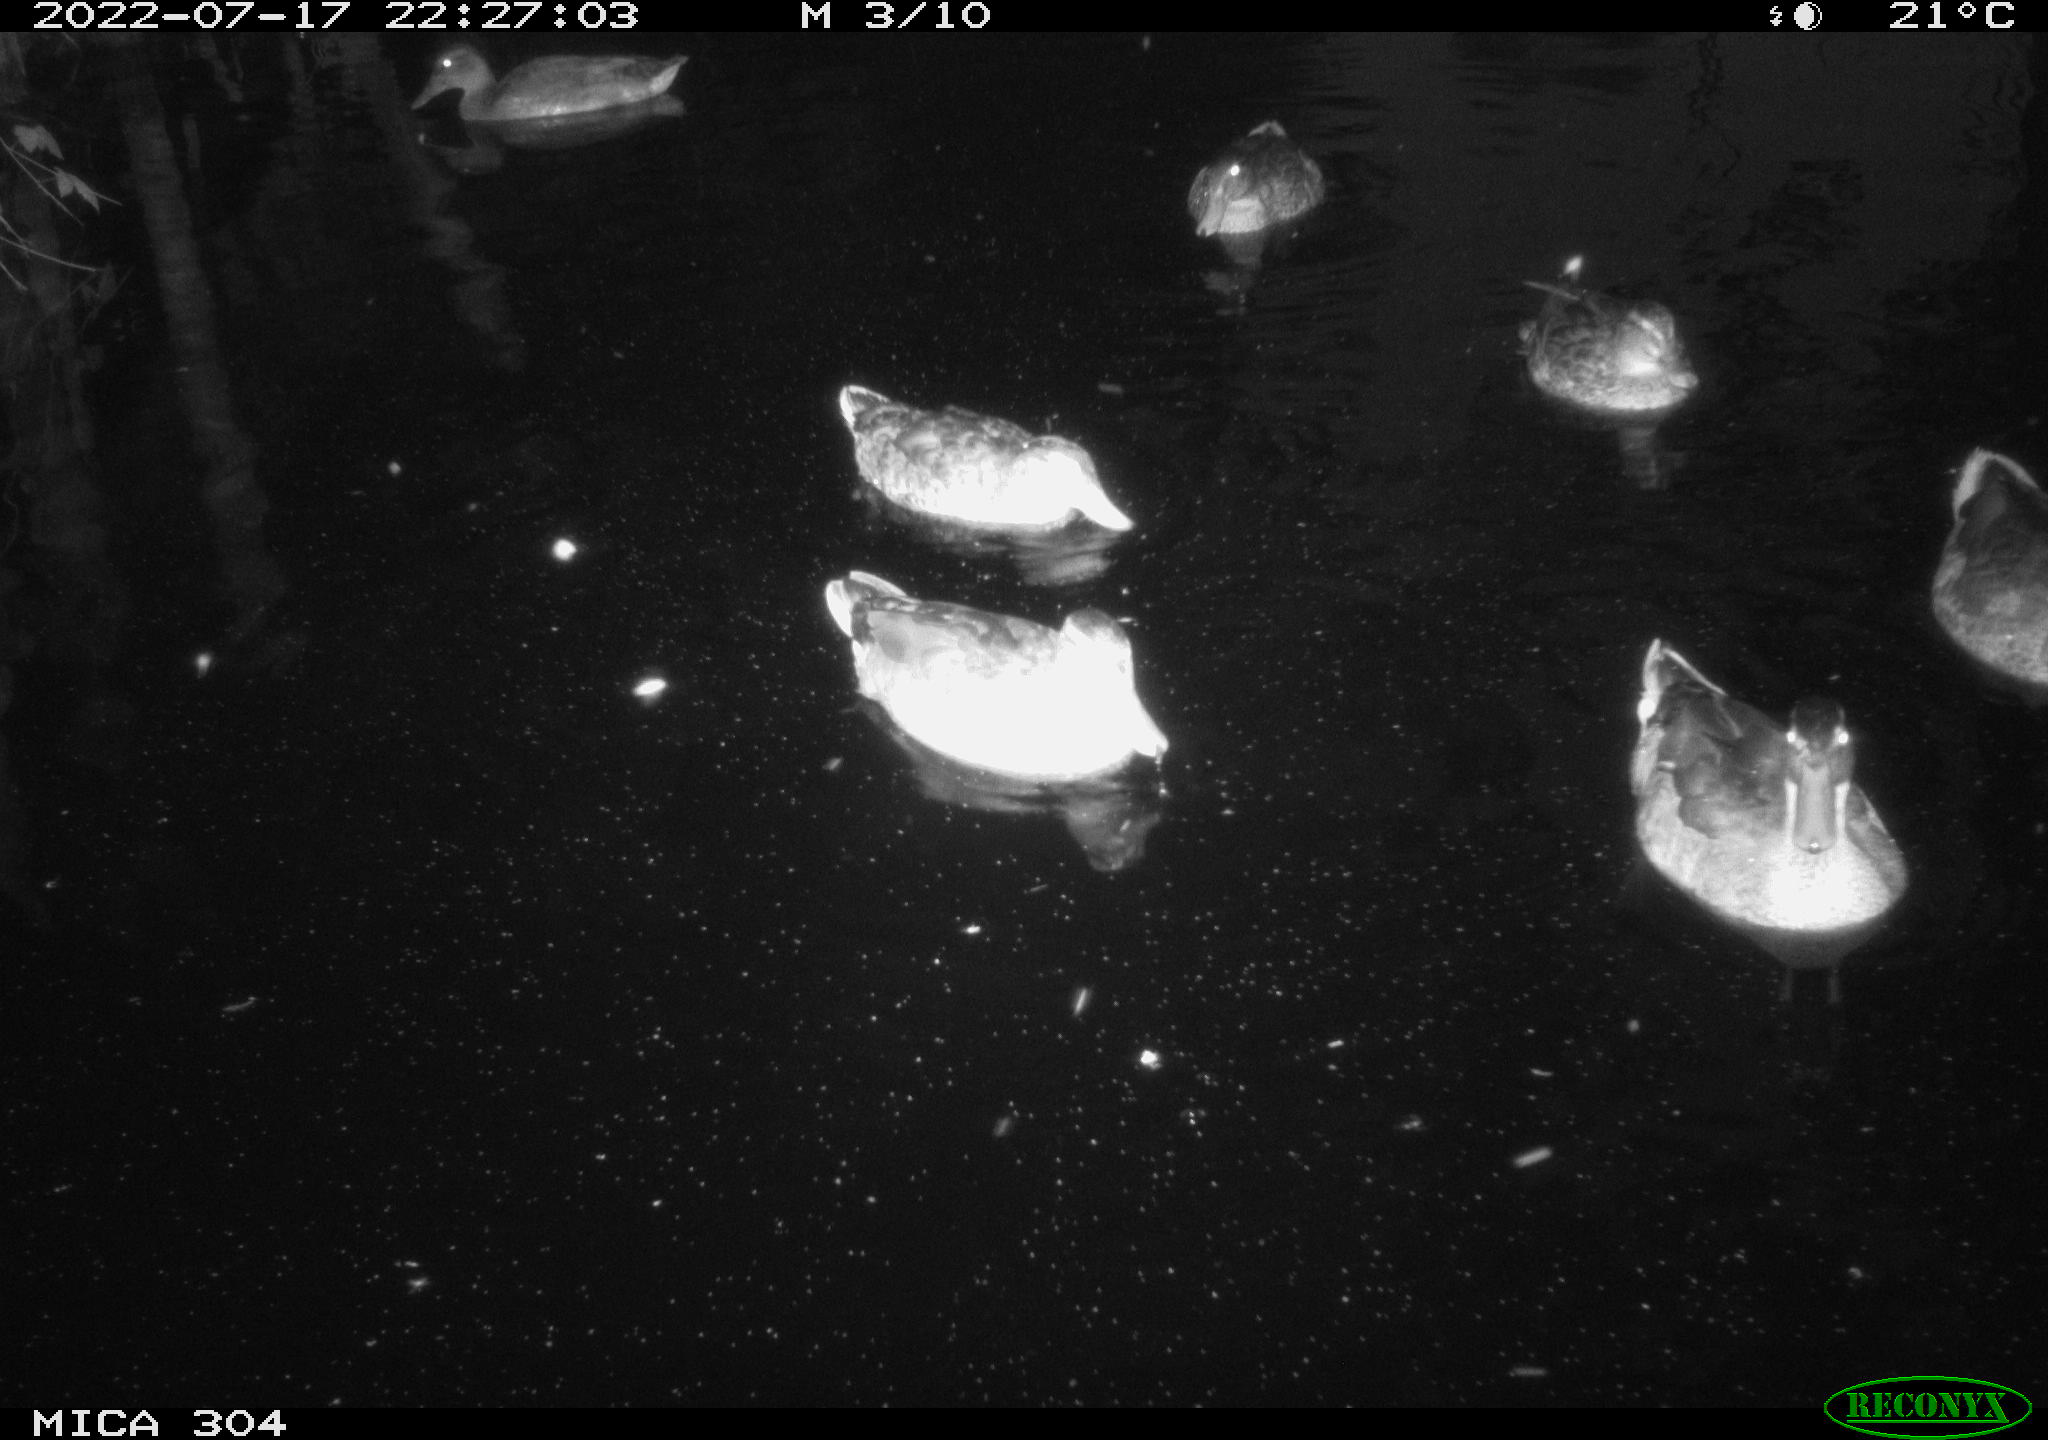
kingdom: Animalia
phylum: Chordata
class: Aves
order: Anseriformes
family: Anatidae
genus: Anas
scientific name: Anas platyrhynchos
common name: Mallard
